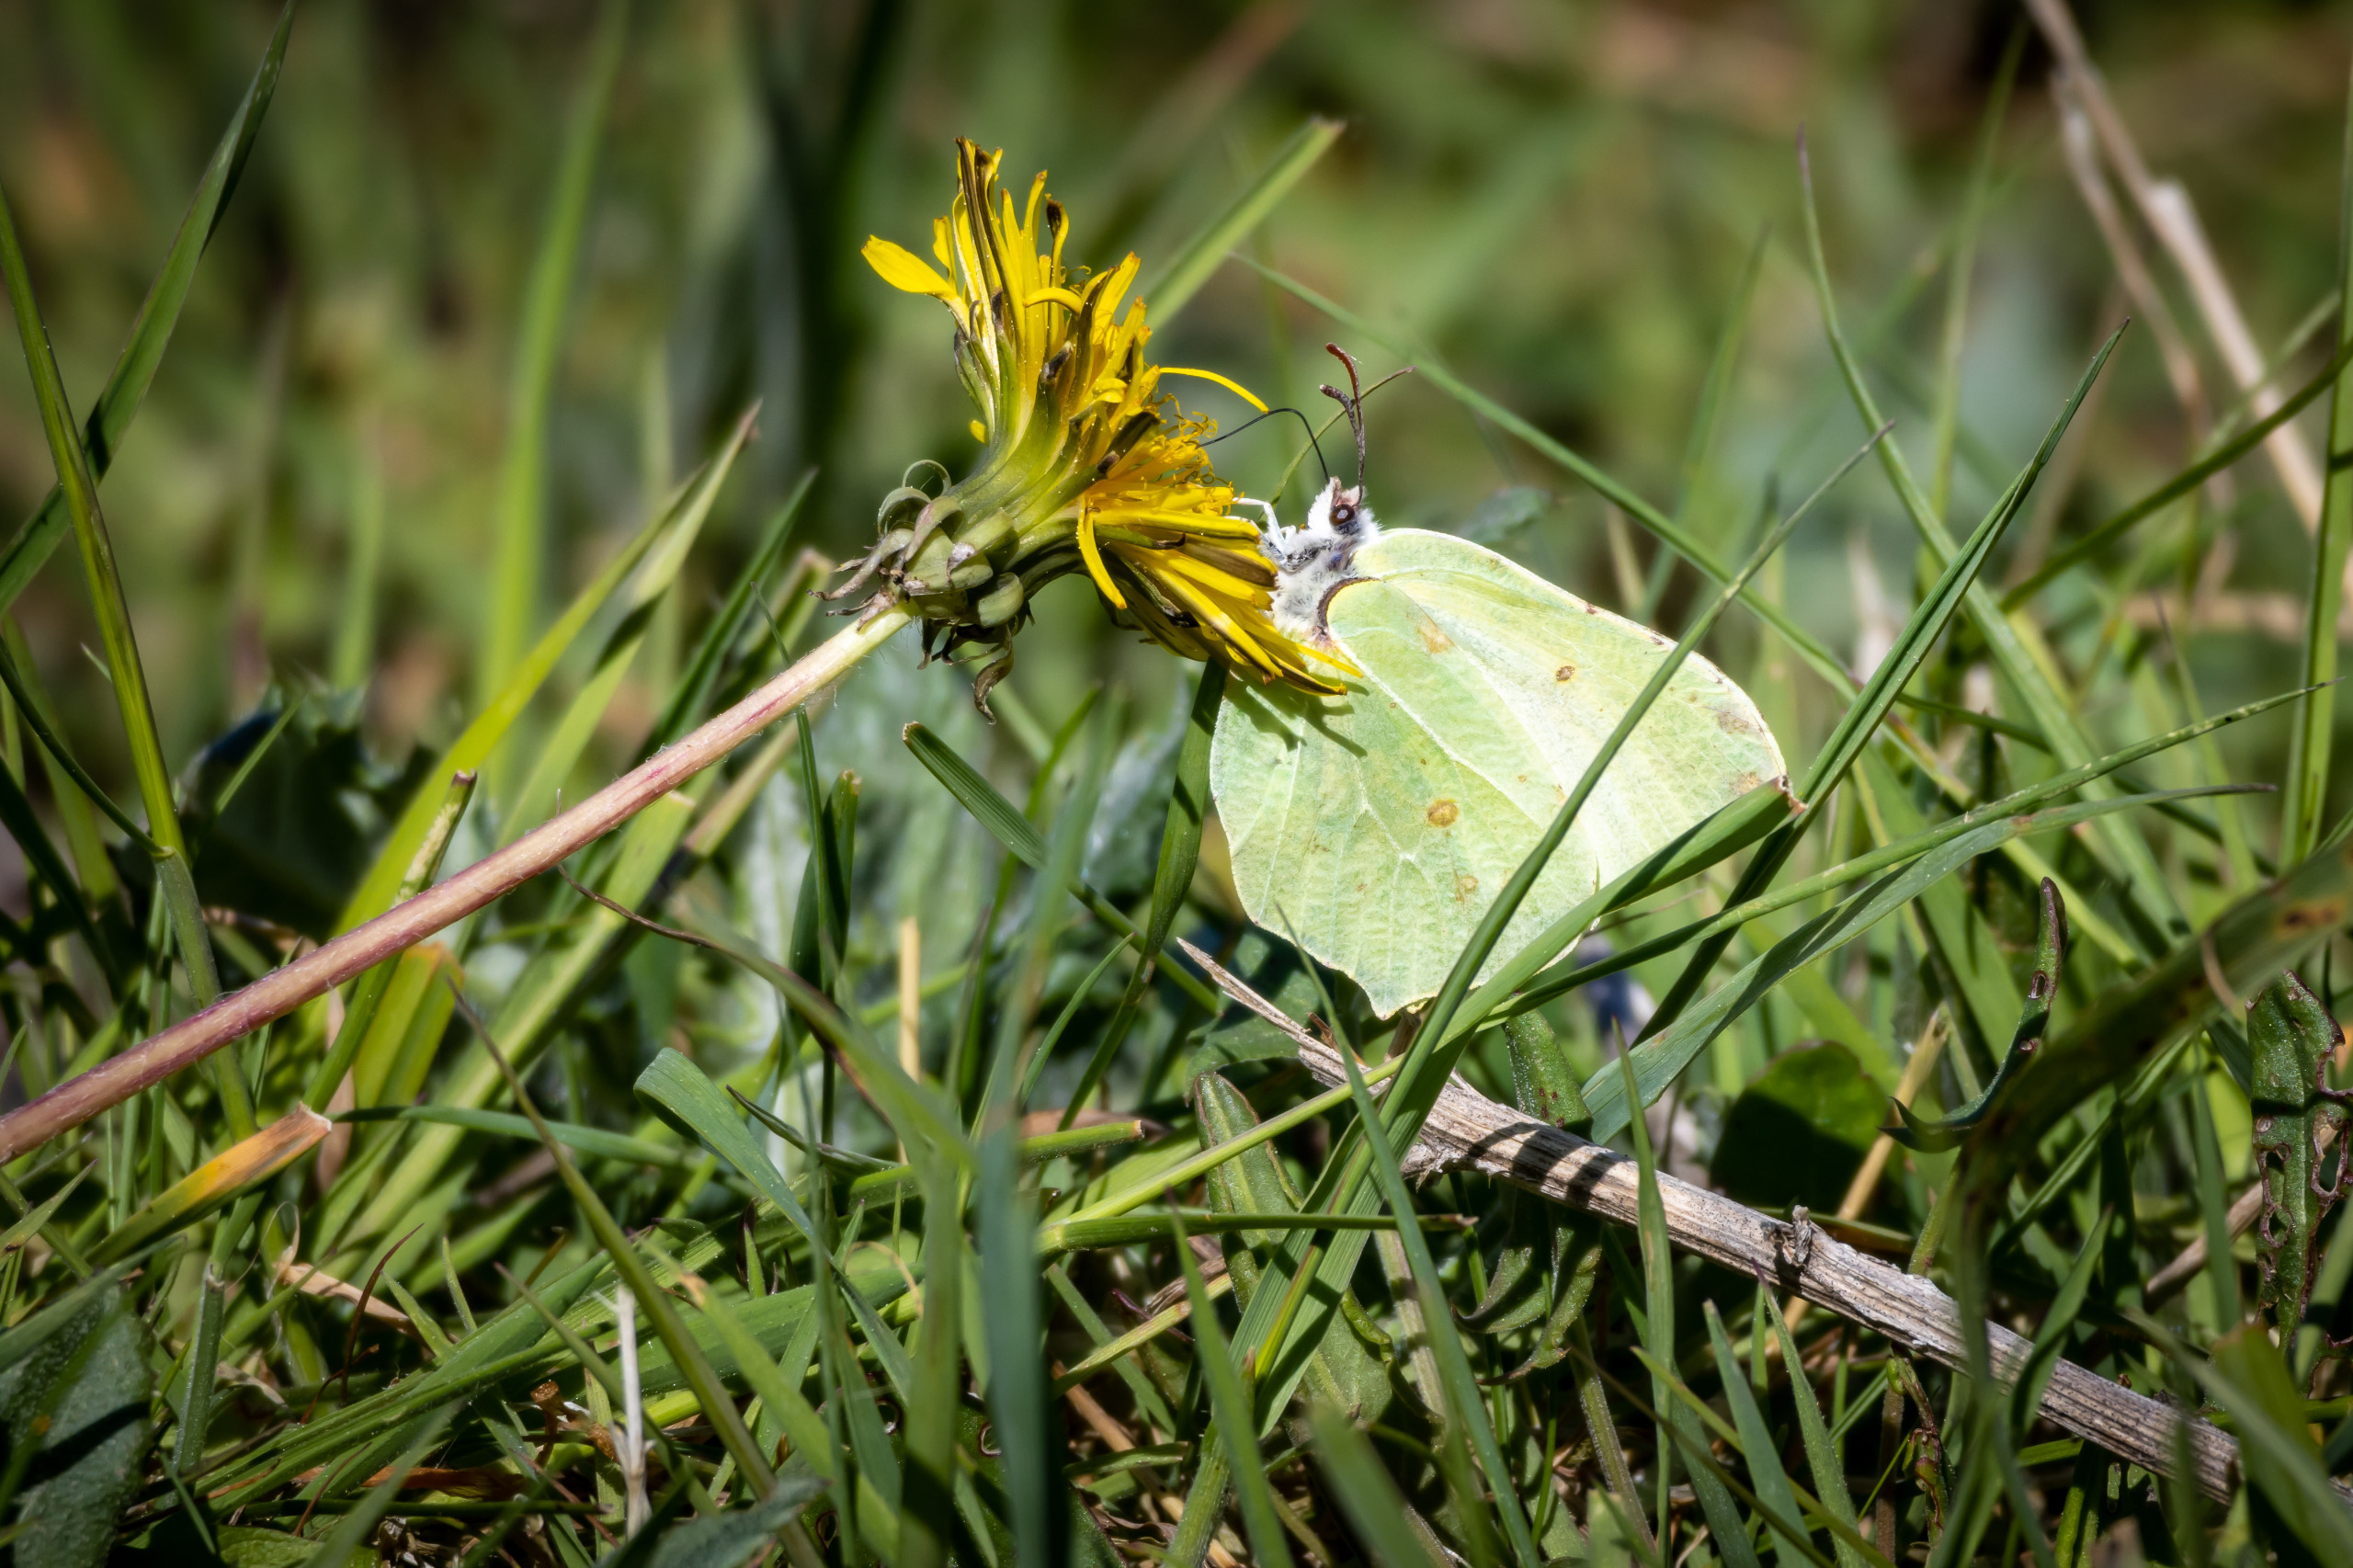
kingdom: Animalia
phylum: Arthropoda
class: Insecta
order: Lepidoptera
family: Pieridae
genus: Gonepteryx
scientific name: Gonepteryx rhamni
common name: Citronsommerfugl
